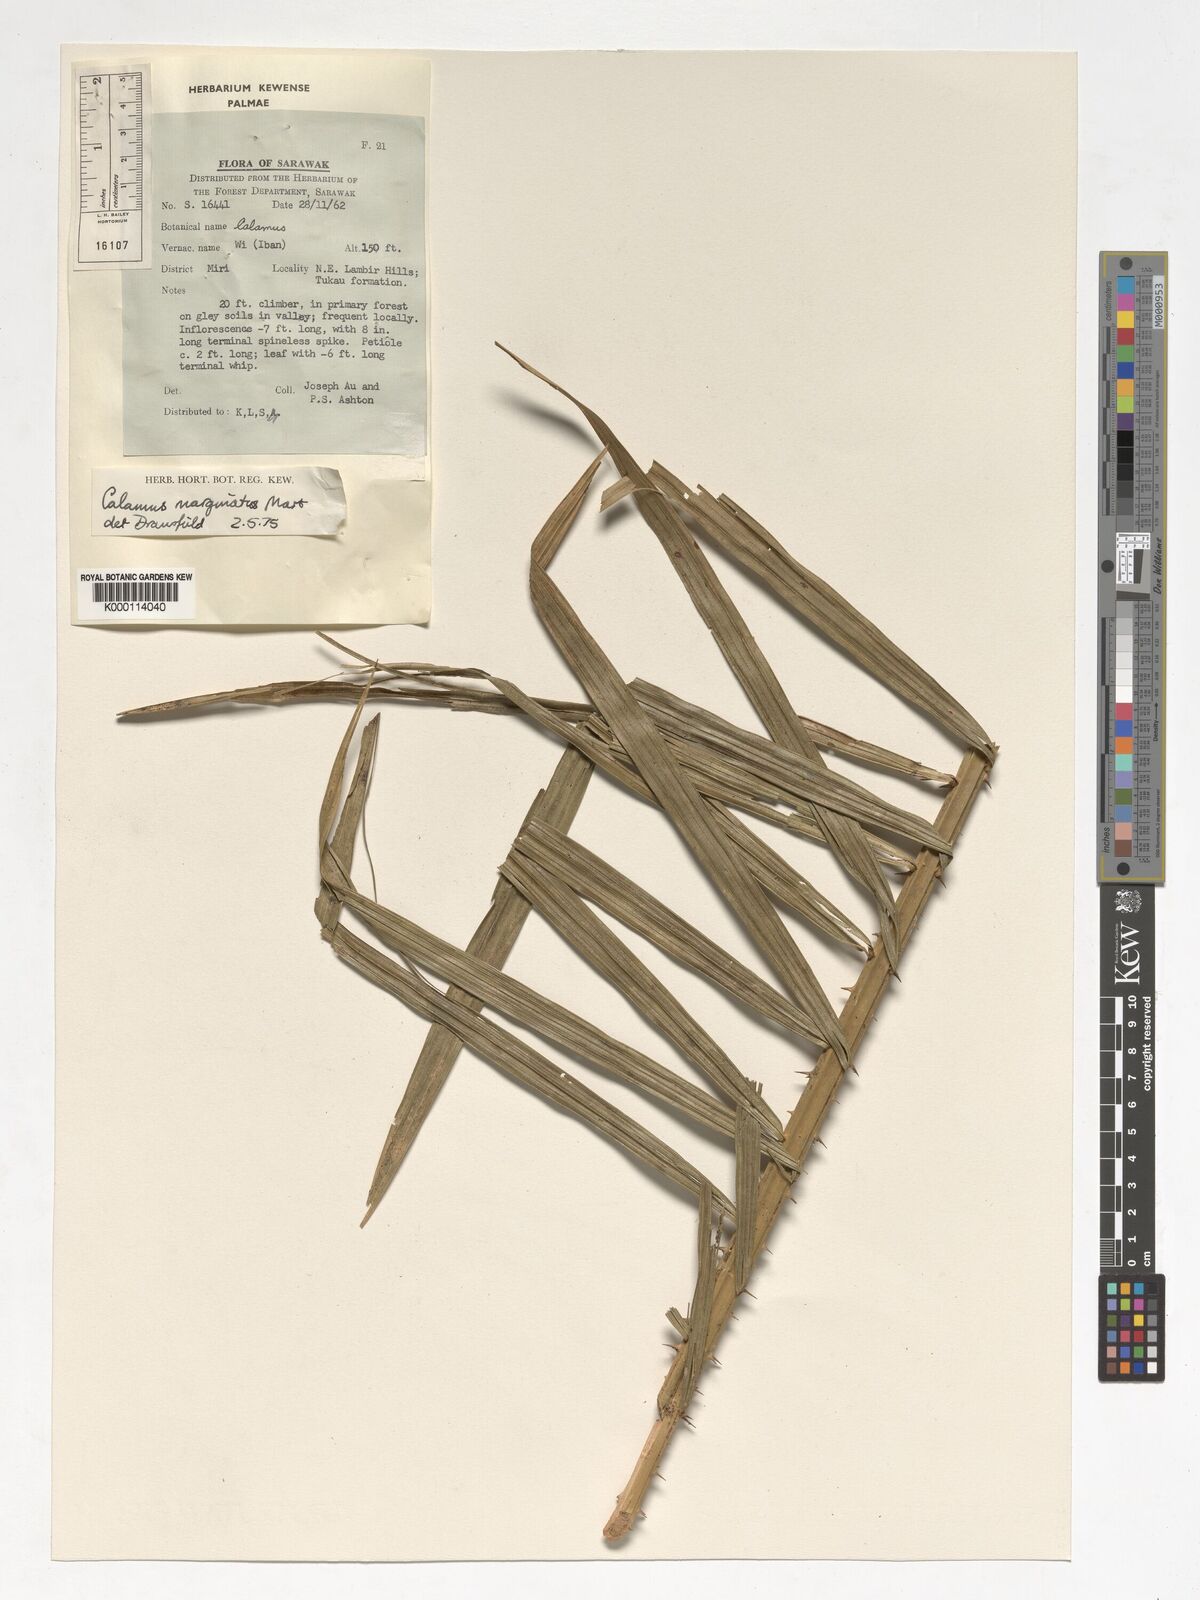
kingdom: Plantae
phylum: Tracheophyta
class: Liliopsida
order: Arecales
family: Arecaceae
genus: Calamus
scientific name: Calamus
